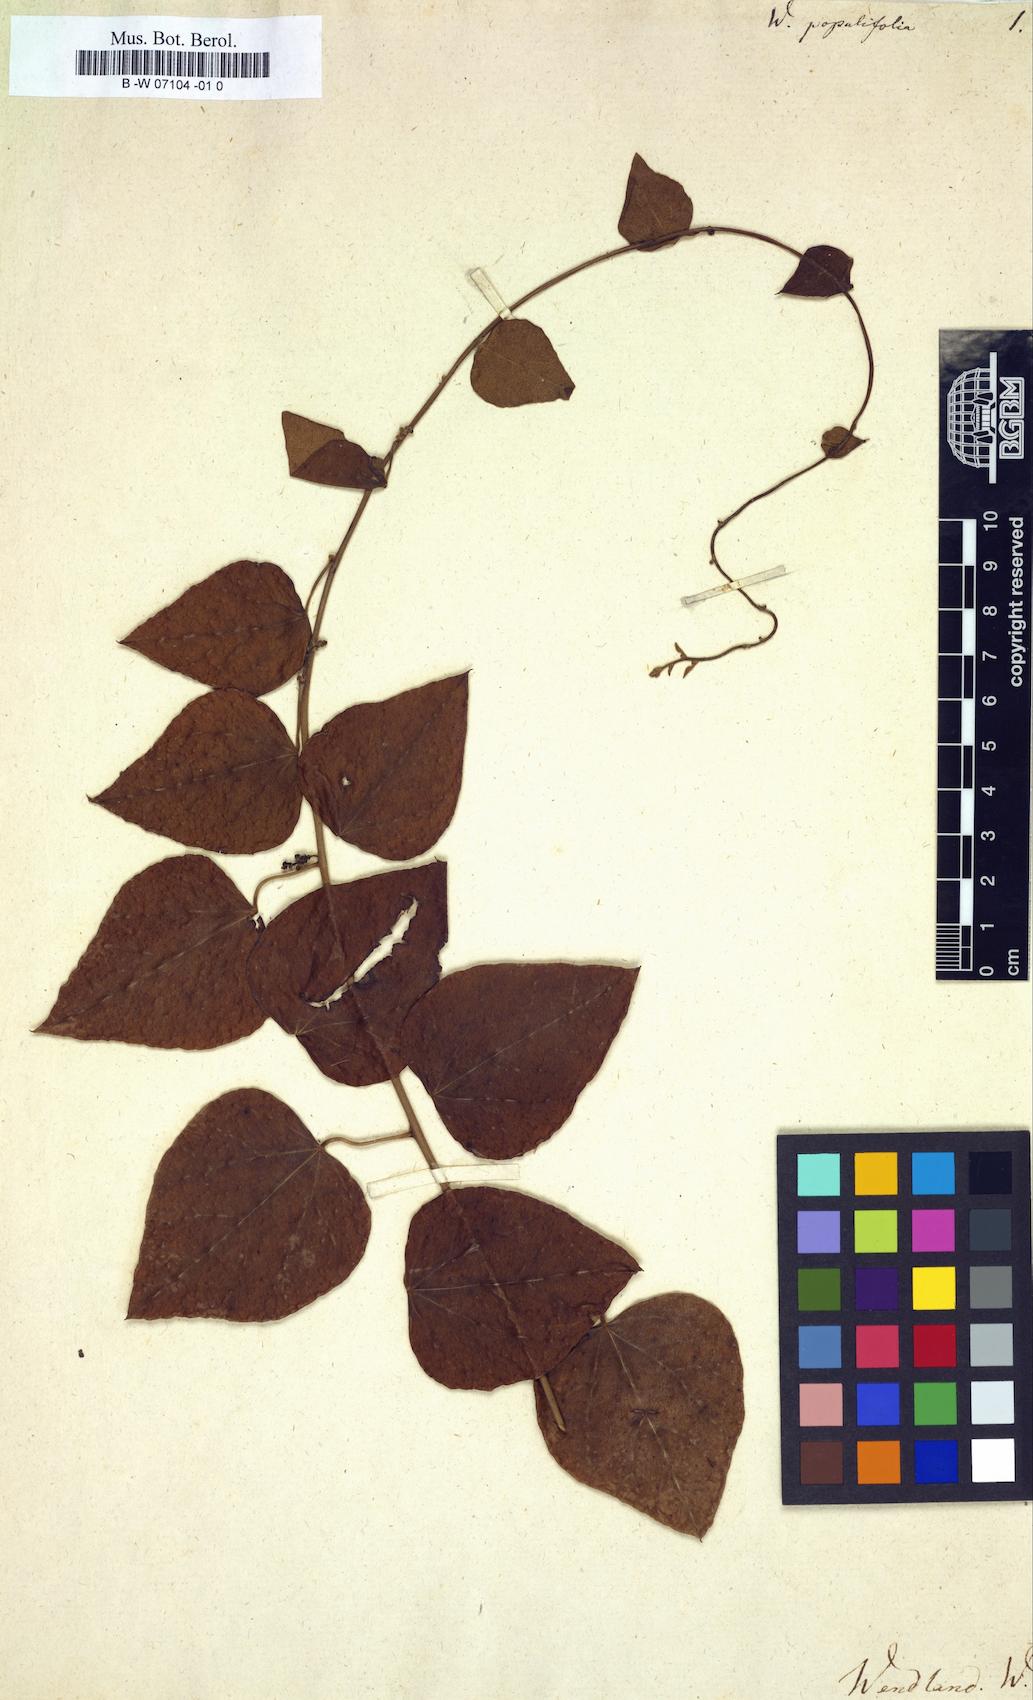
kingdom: Plantae
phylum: Tracheophyta
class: Magnoliopsida
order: Ranunculales
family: Menispermaceae
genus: Cocculus
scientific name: Cocculus carolinus
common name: Carolina moonseed
